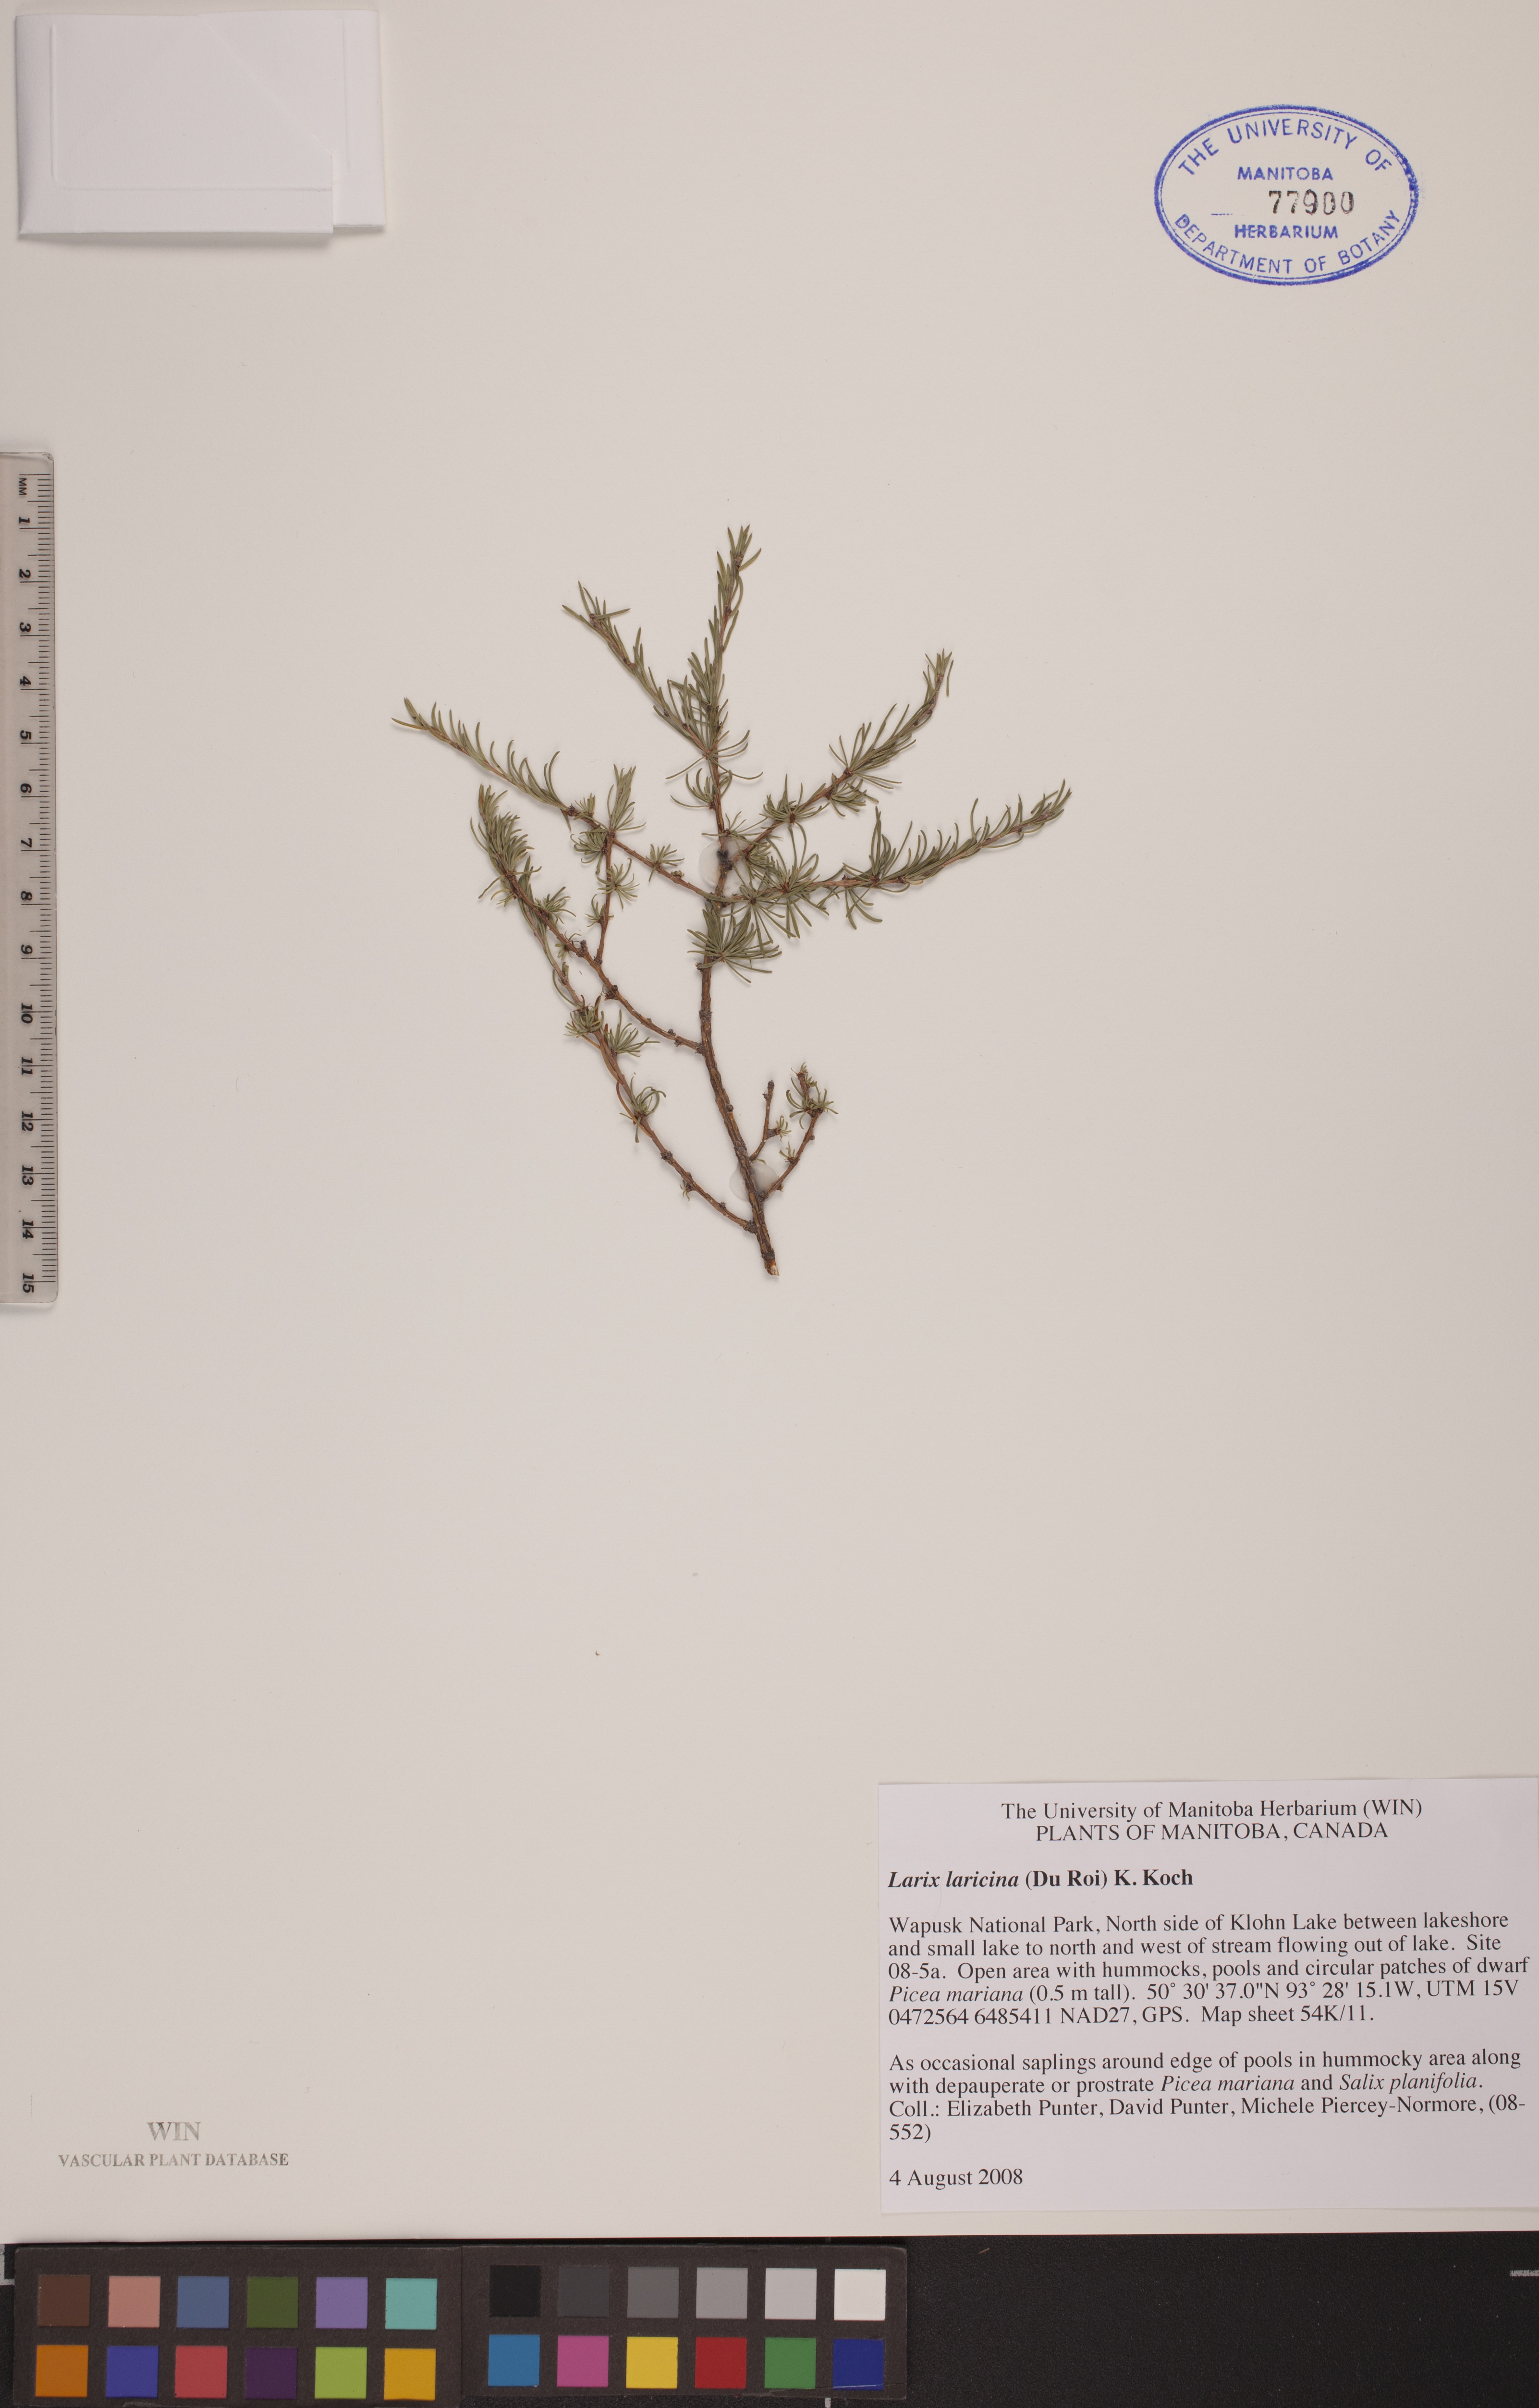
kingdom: Plantae
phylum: Tracheophyta
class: Pinopsida
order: Pinales
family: Pinaceae
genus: Larix
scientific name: Larix laricina
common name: American larch
